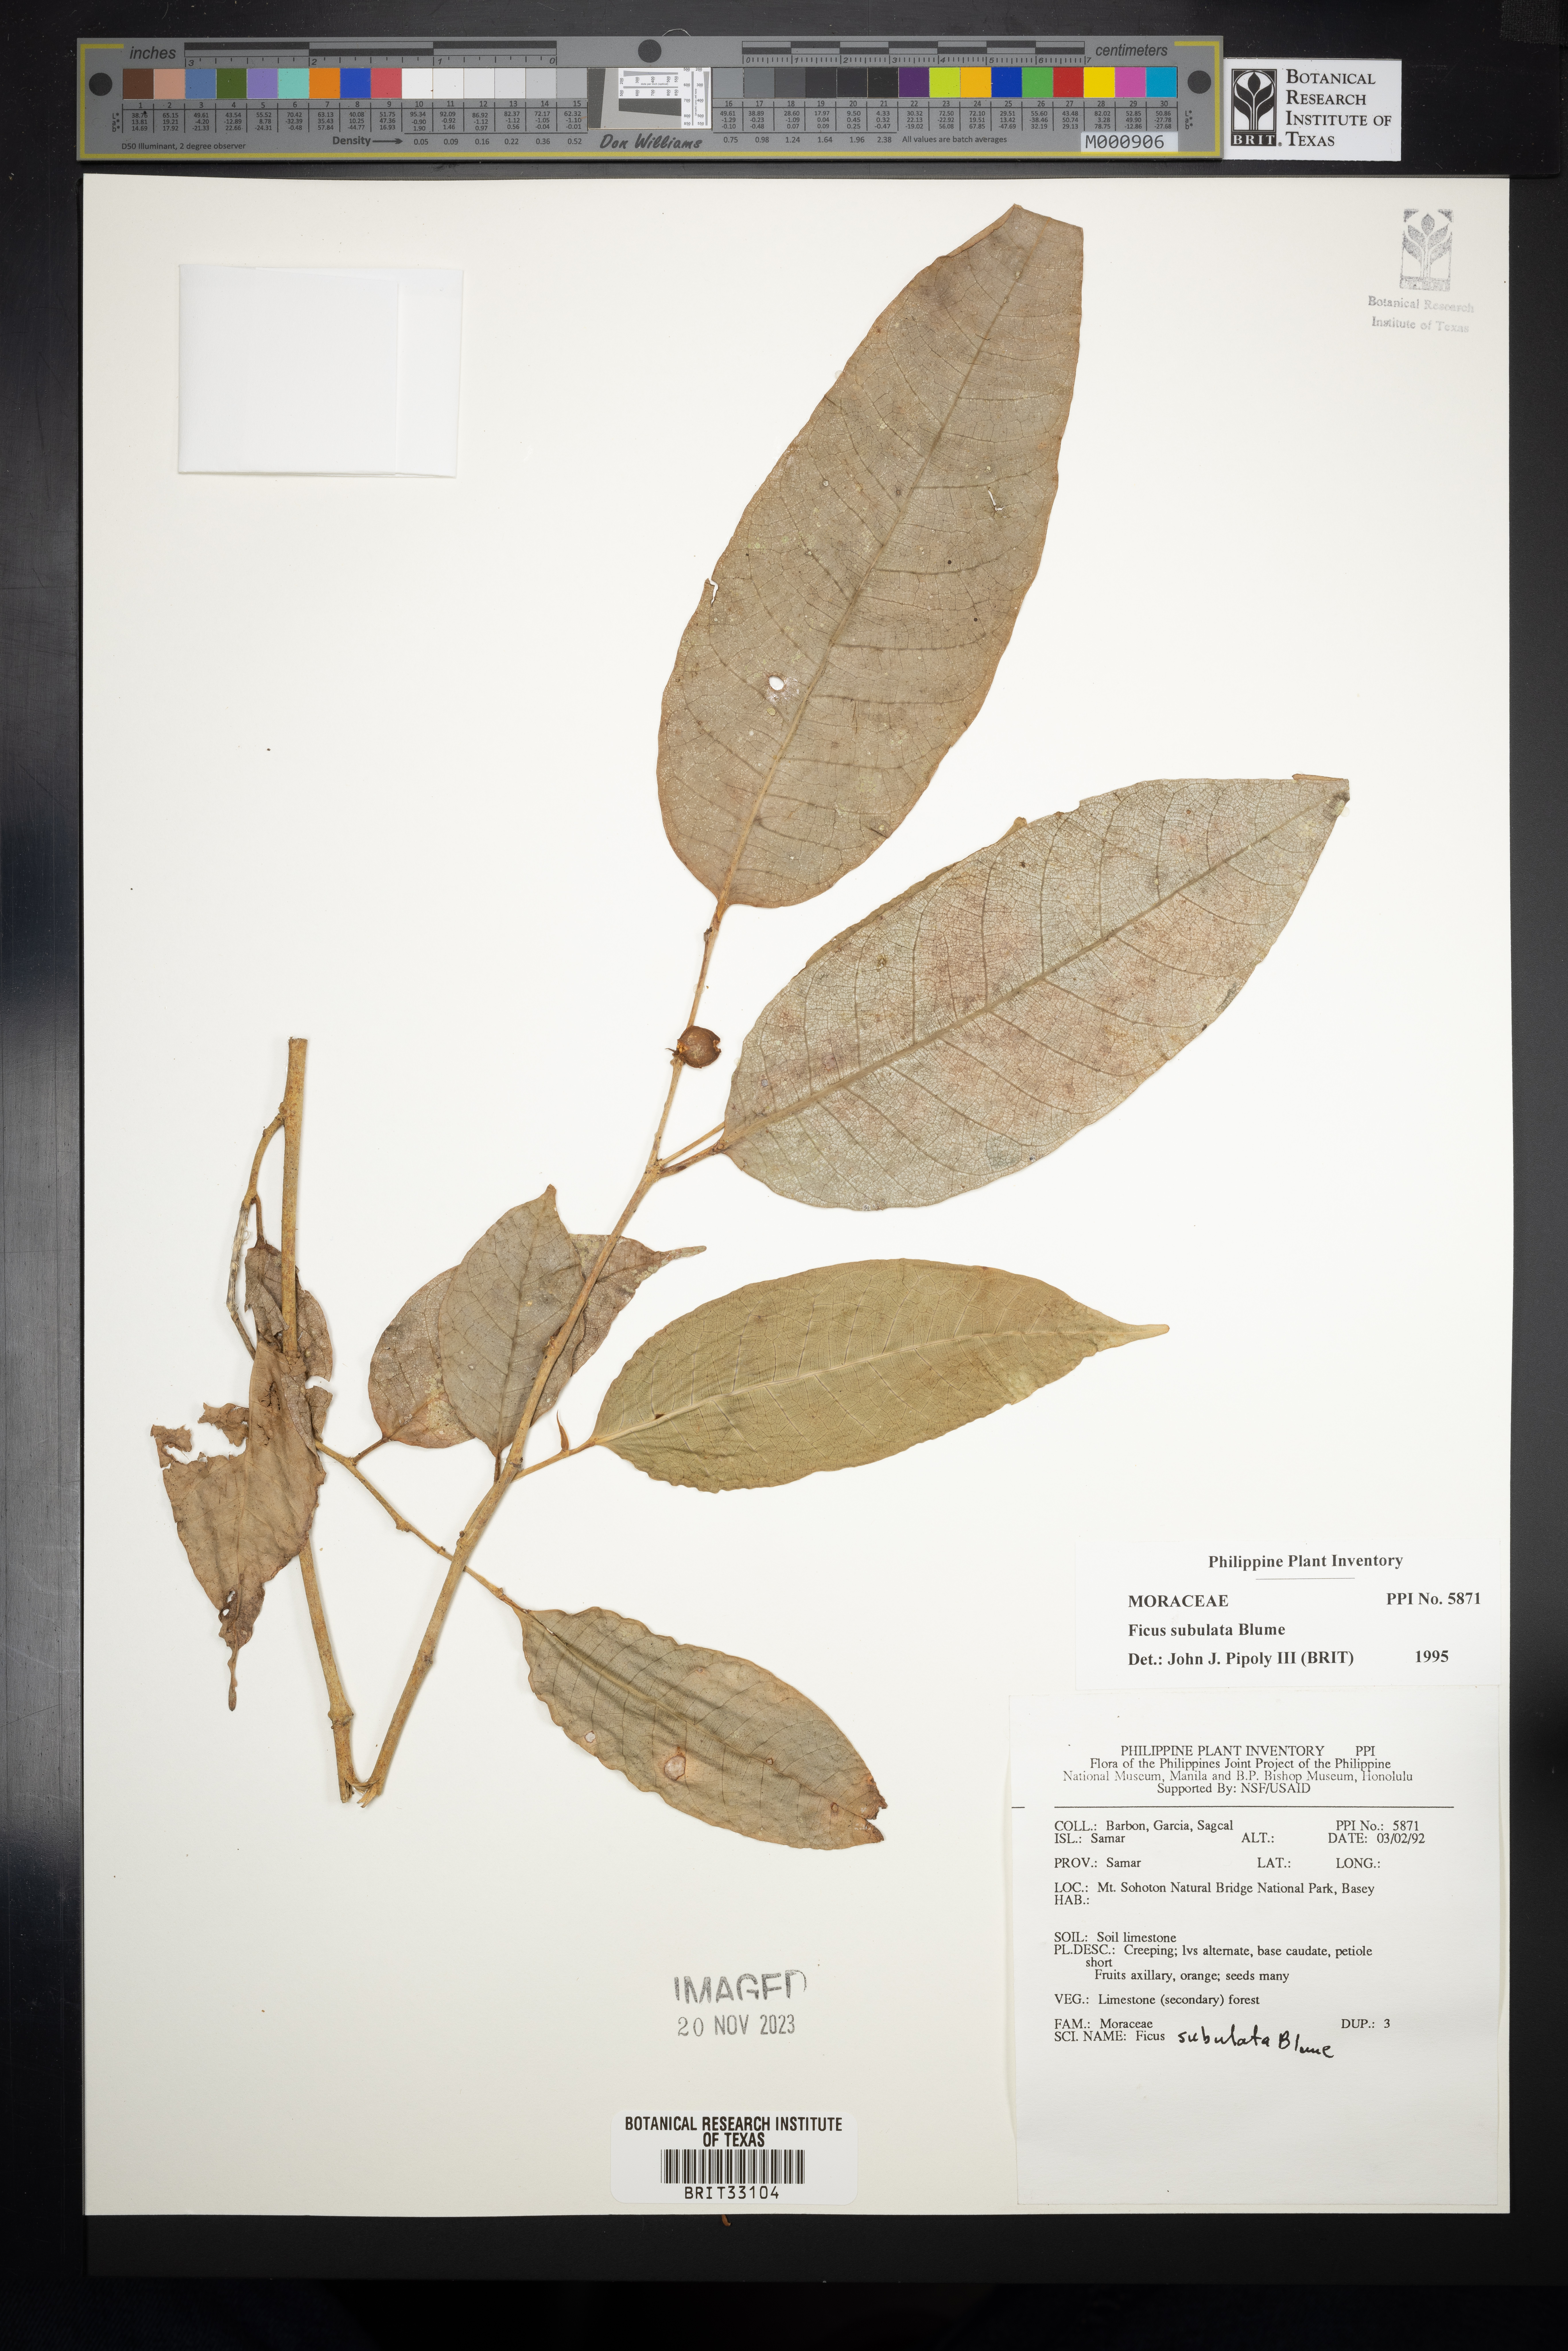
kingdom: Plantae
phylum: Tracheophyta
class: Magnoliopsida
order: Rosales
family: Moraceae
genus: Ficus
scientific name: Ficus subulata
